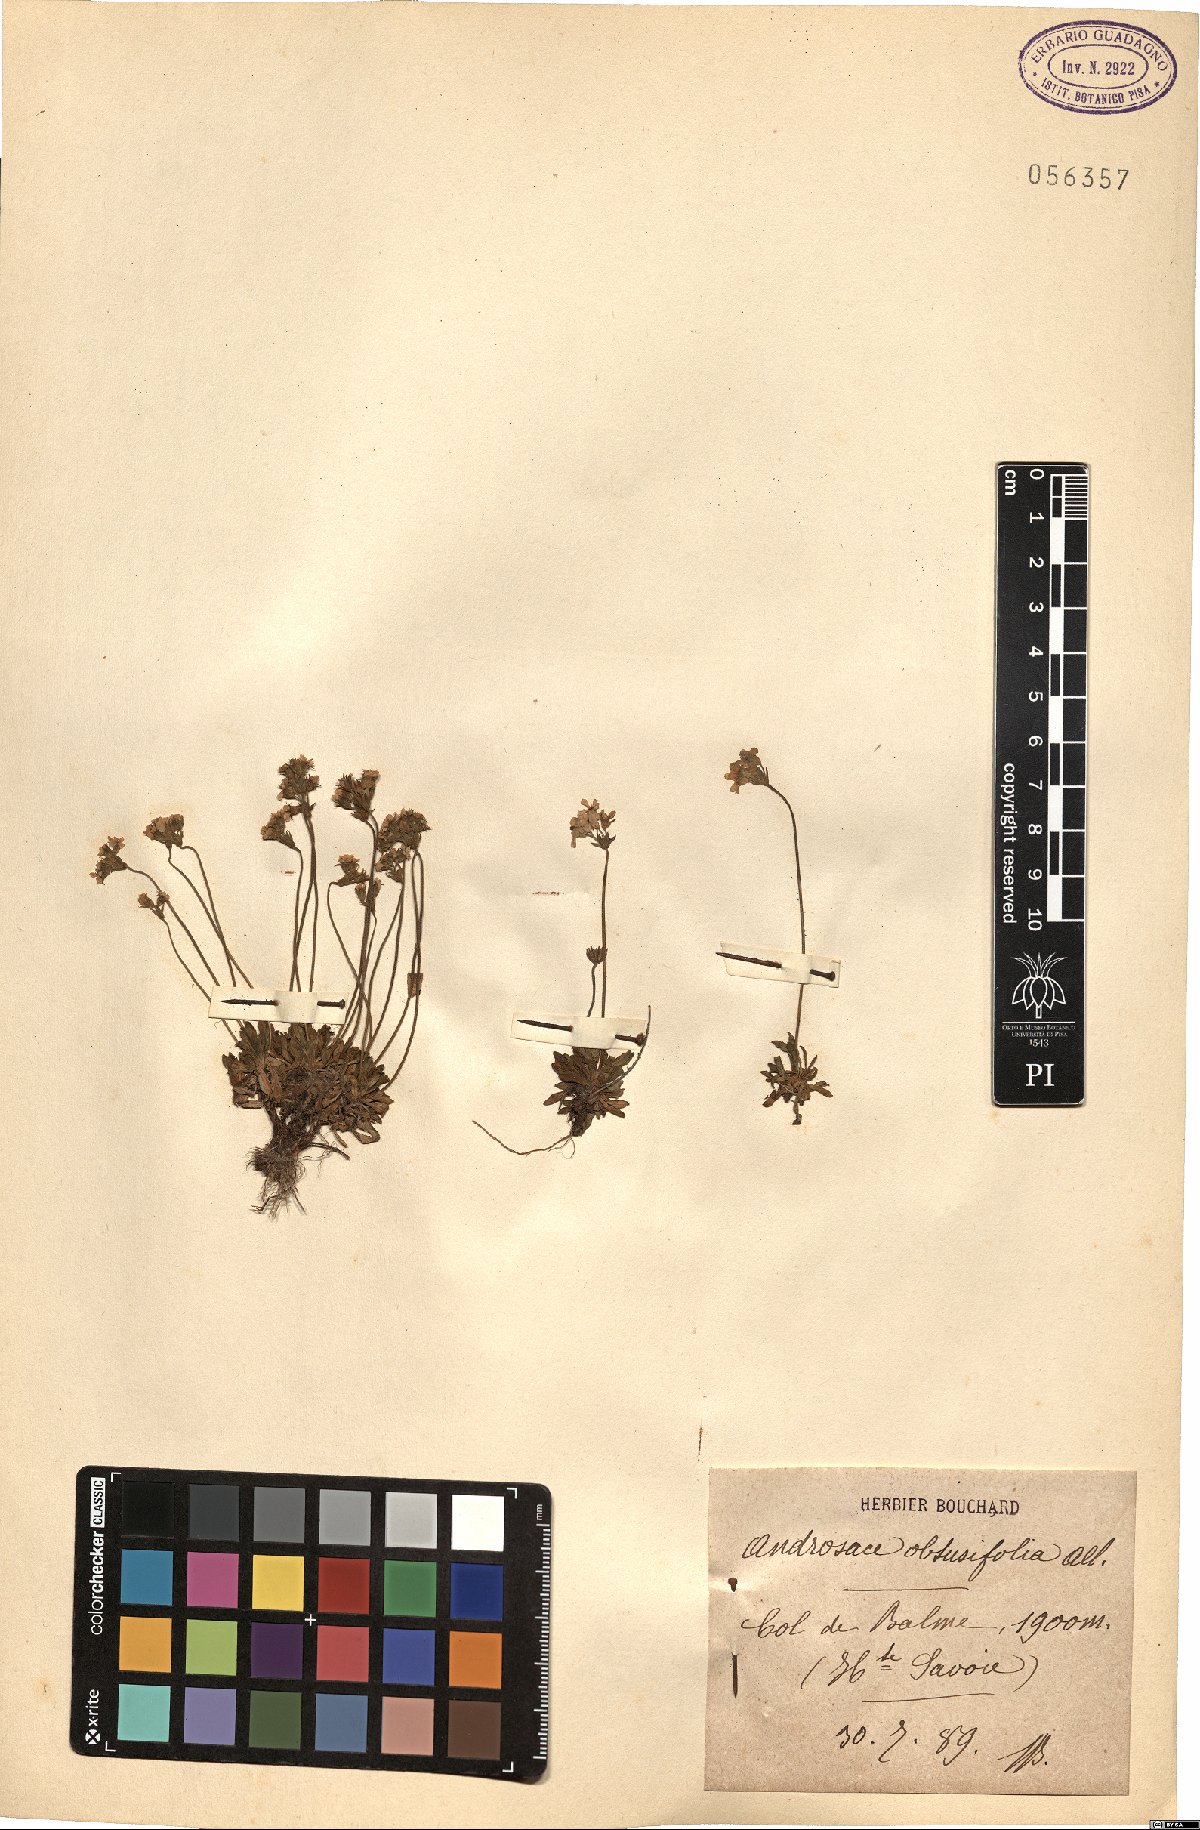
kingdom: Plantae
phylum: Tracheophyta
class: Magnoliopsida
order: Ericales
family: Primulaceae
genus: Androsace
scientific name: Androsace obtusifolia
